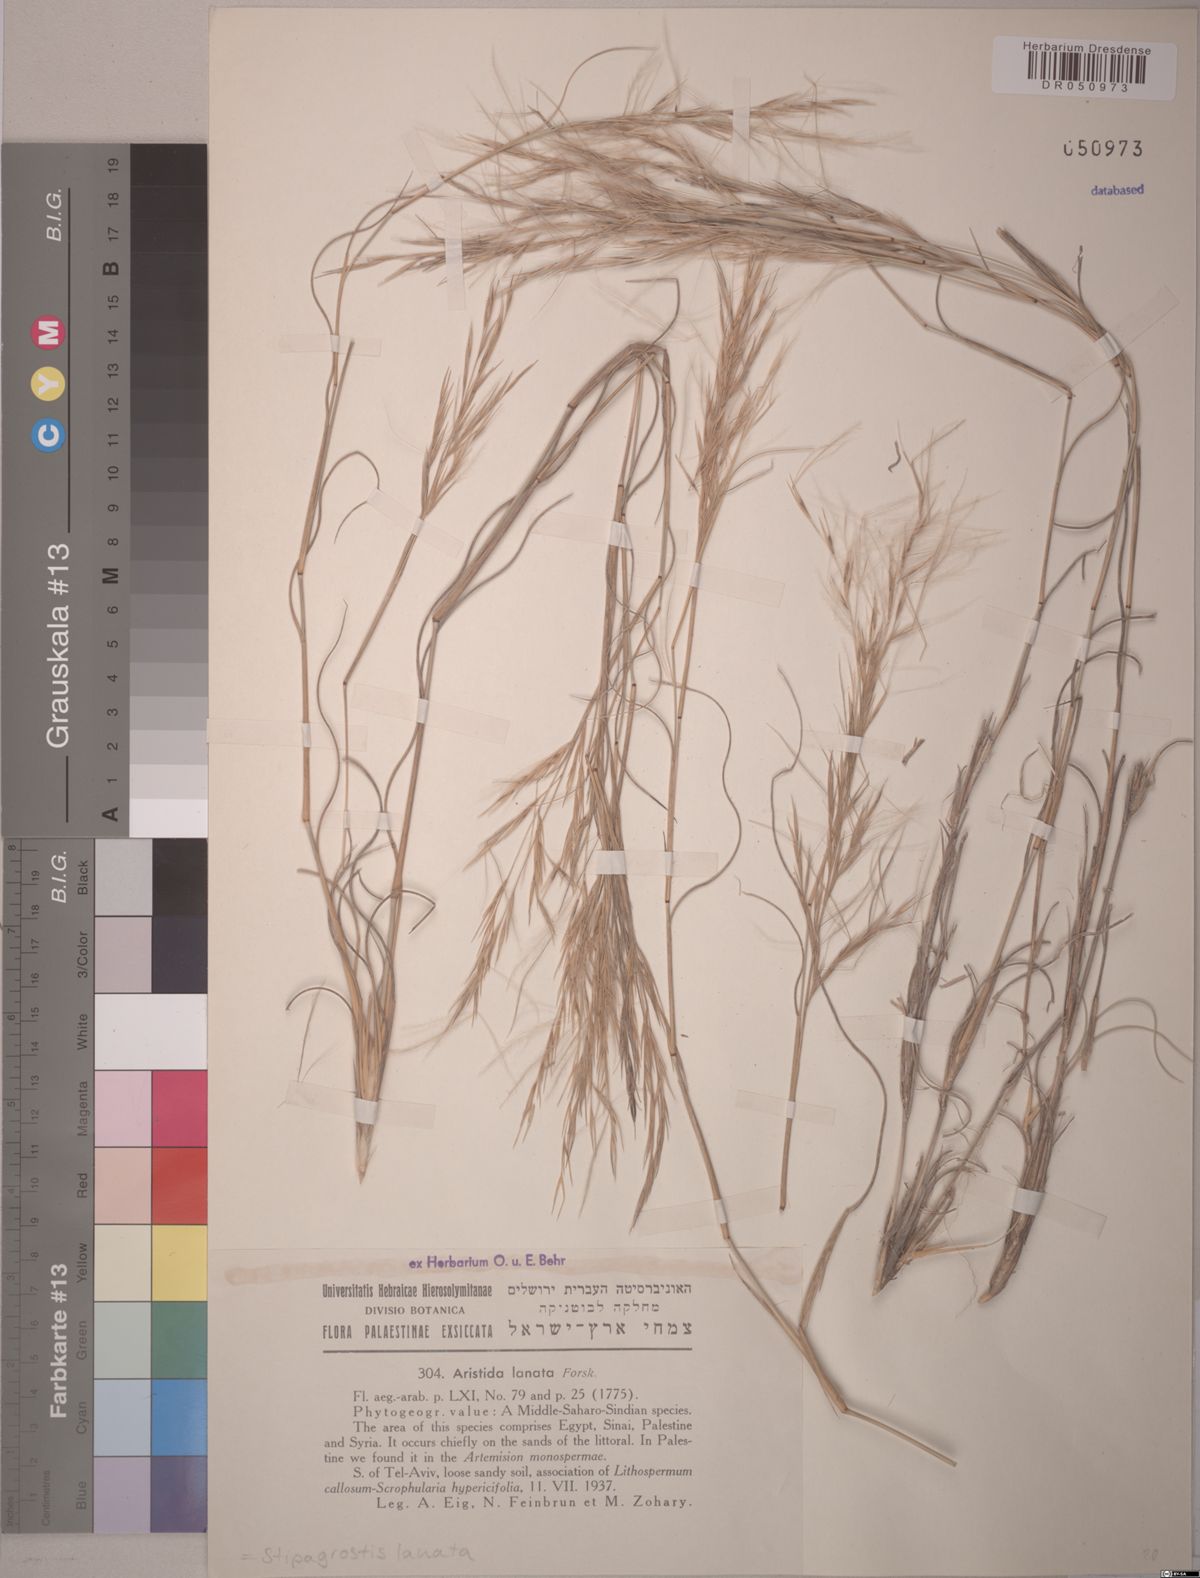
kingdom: Plantae
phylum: Tracheophyta
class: Liliopsida
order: Poales
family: Poaceae
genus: Stipagrostis
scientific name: Stipagrostis lanata
